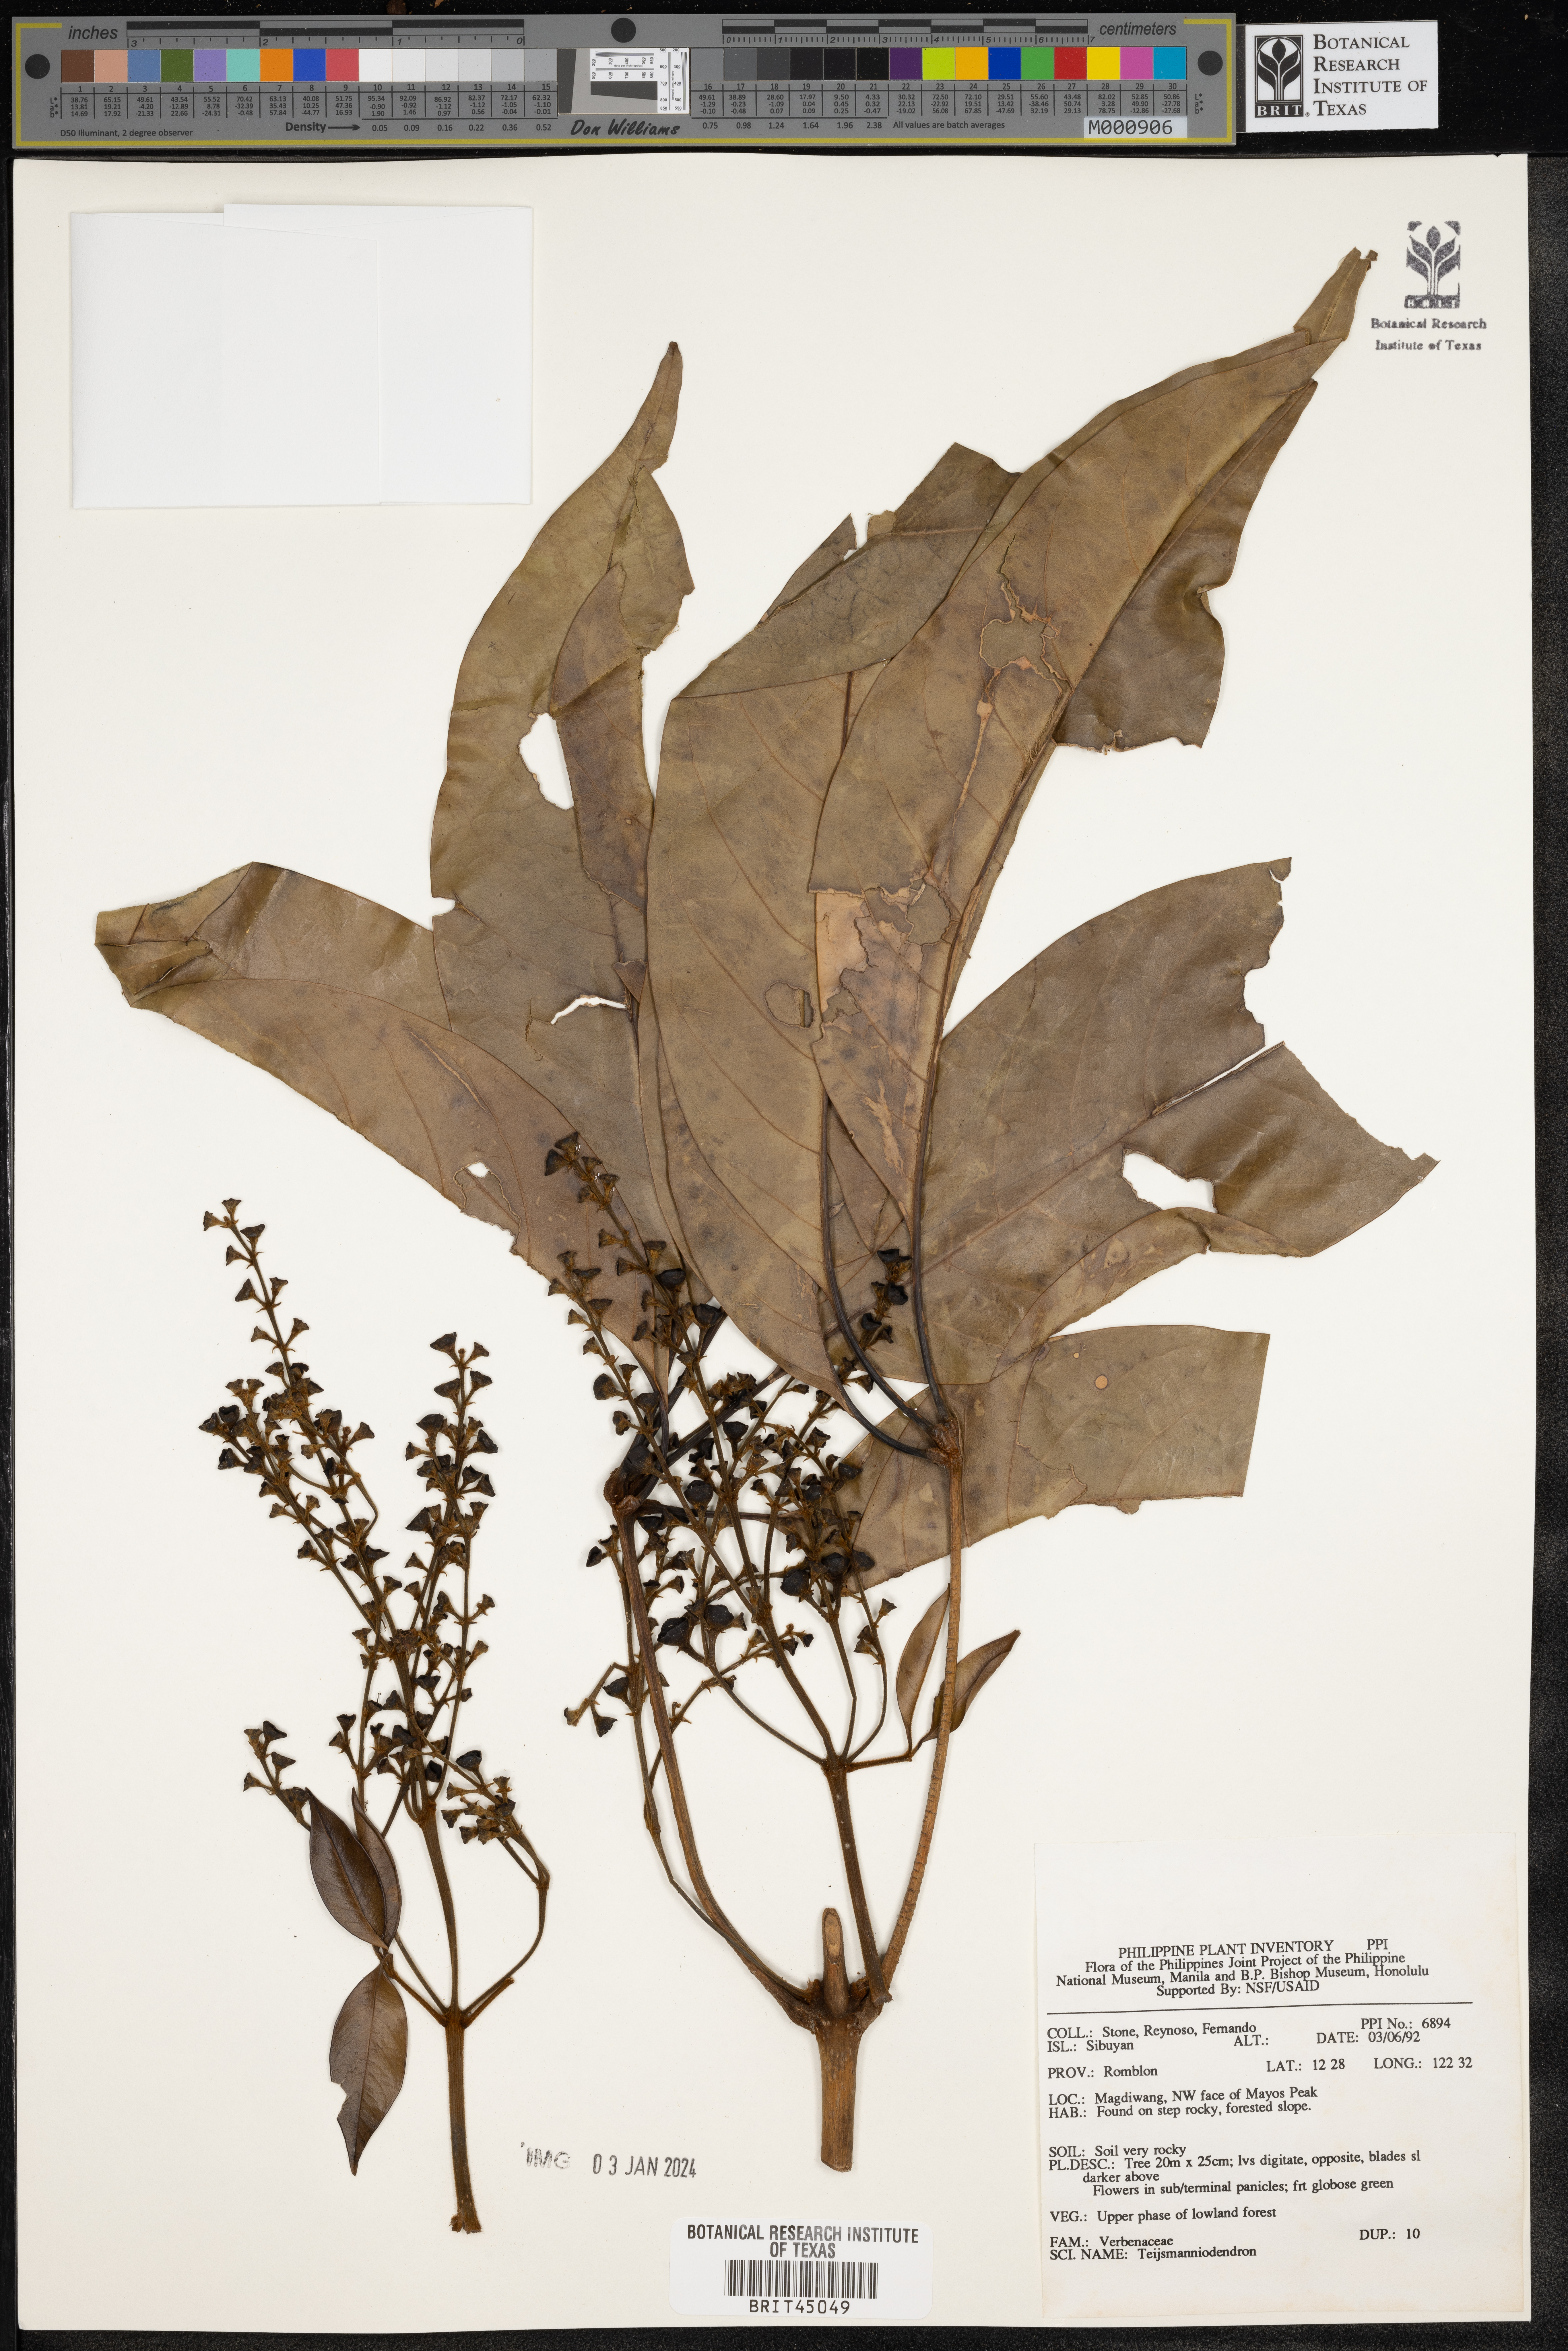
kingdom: Plantae
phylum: Tracheophyta
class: Magnoliopsida
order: Lamiales
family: Lamiaceae
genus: Teijsmanniodendron
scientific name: Teijsmanniodendron
